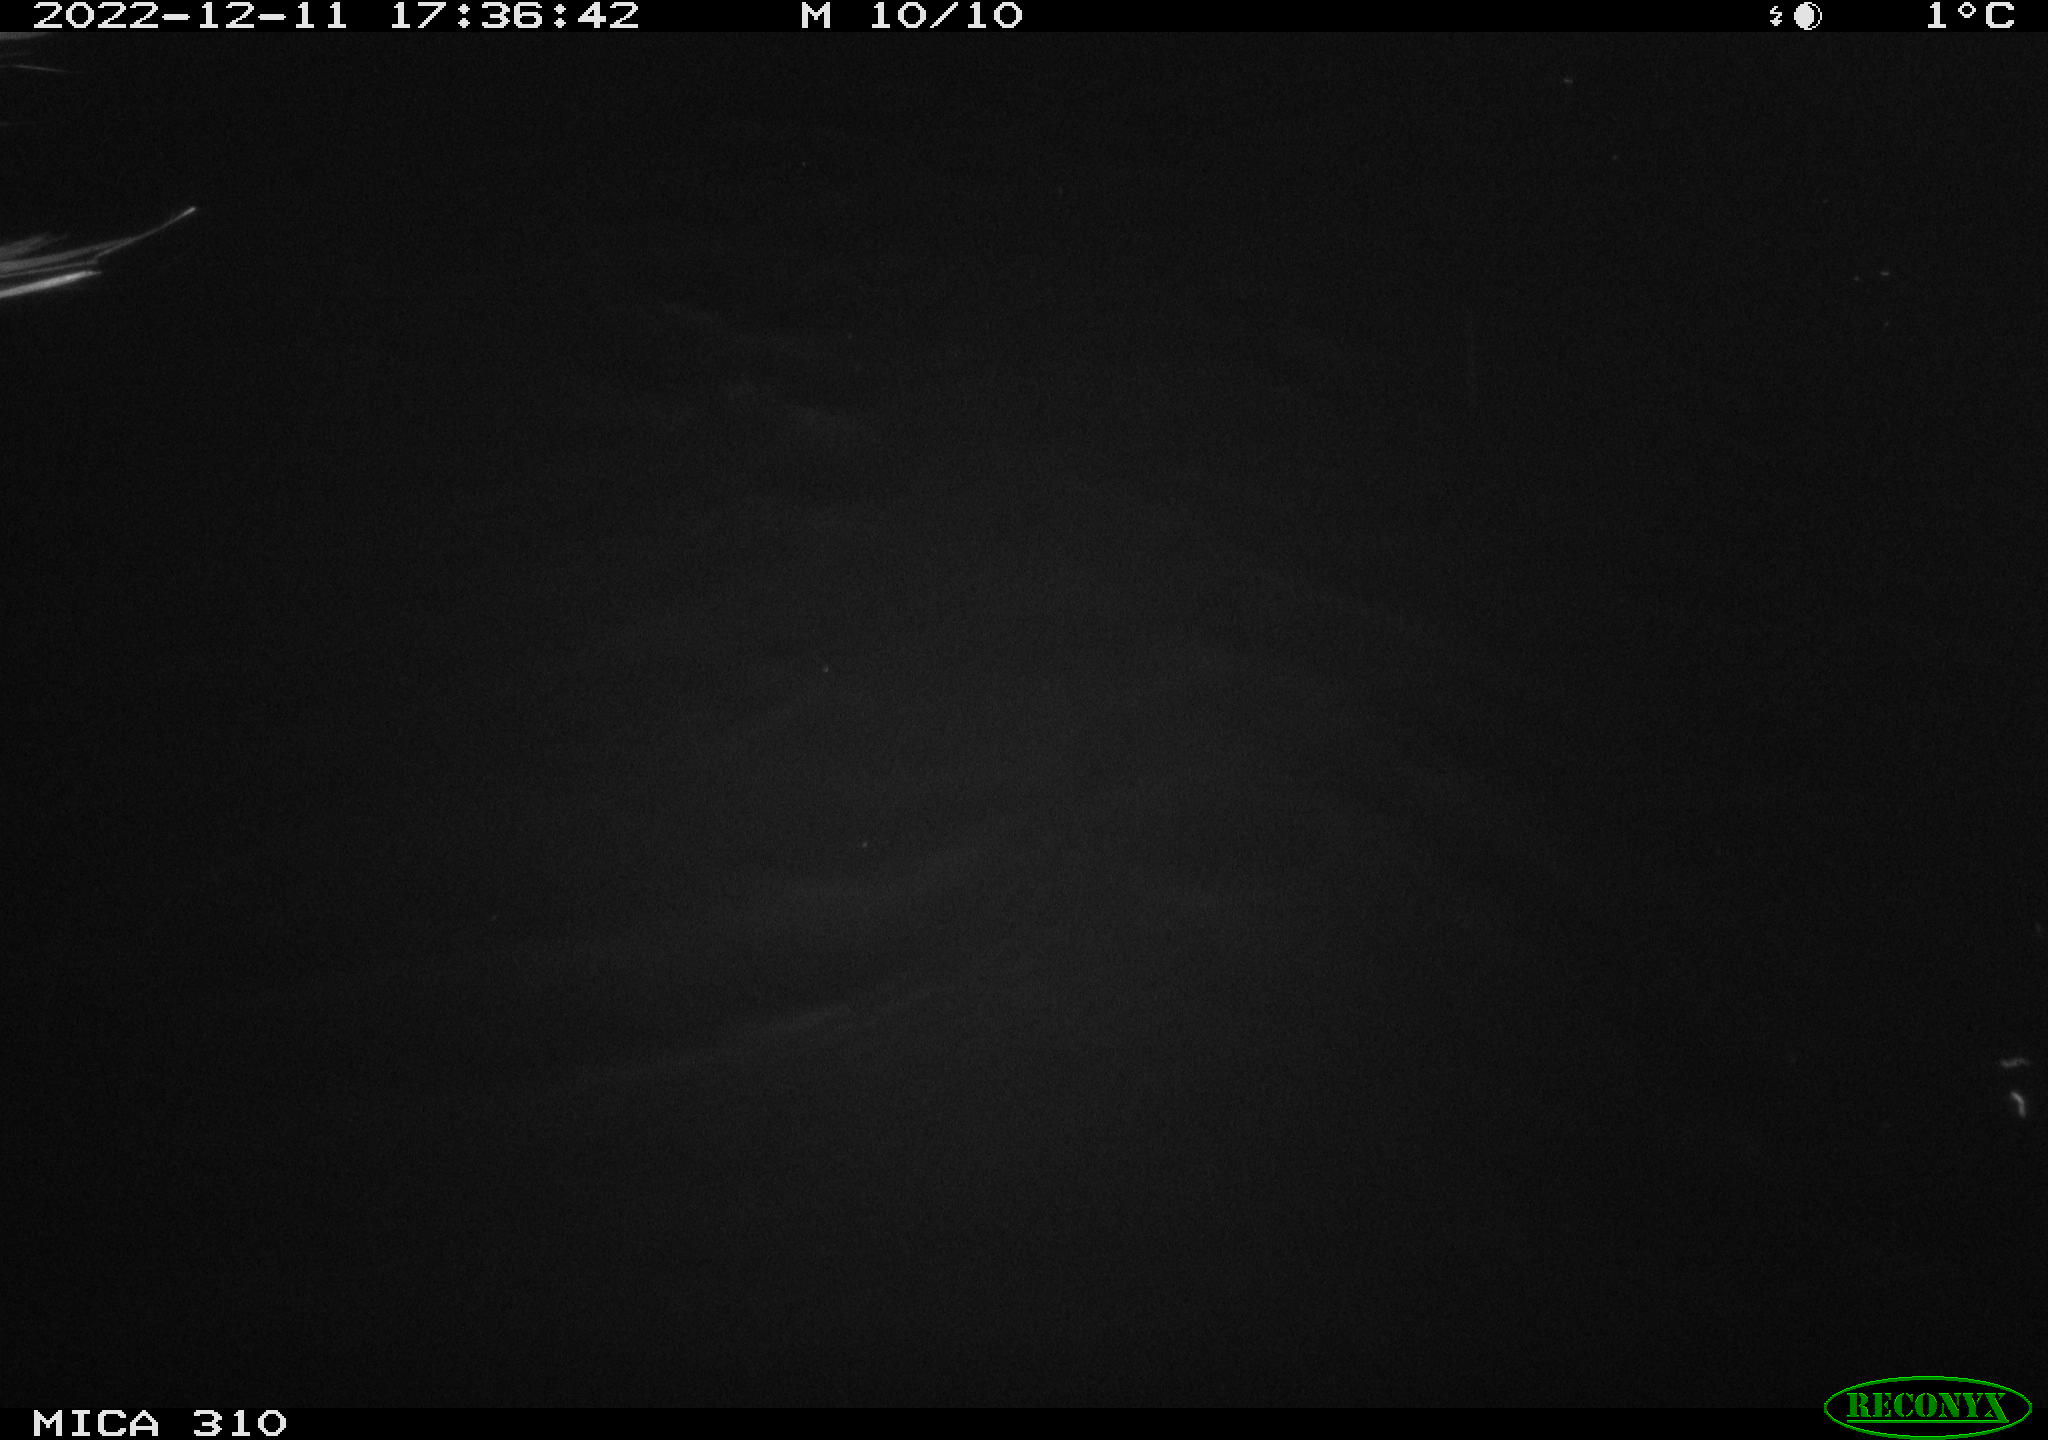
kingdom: Animalia
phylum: Chordata
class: Aves
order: Anseriformes
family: Anatidae
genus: Anas
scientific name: Anas
